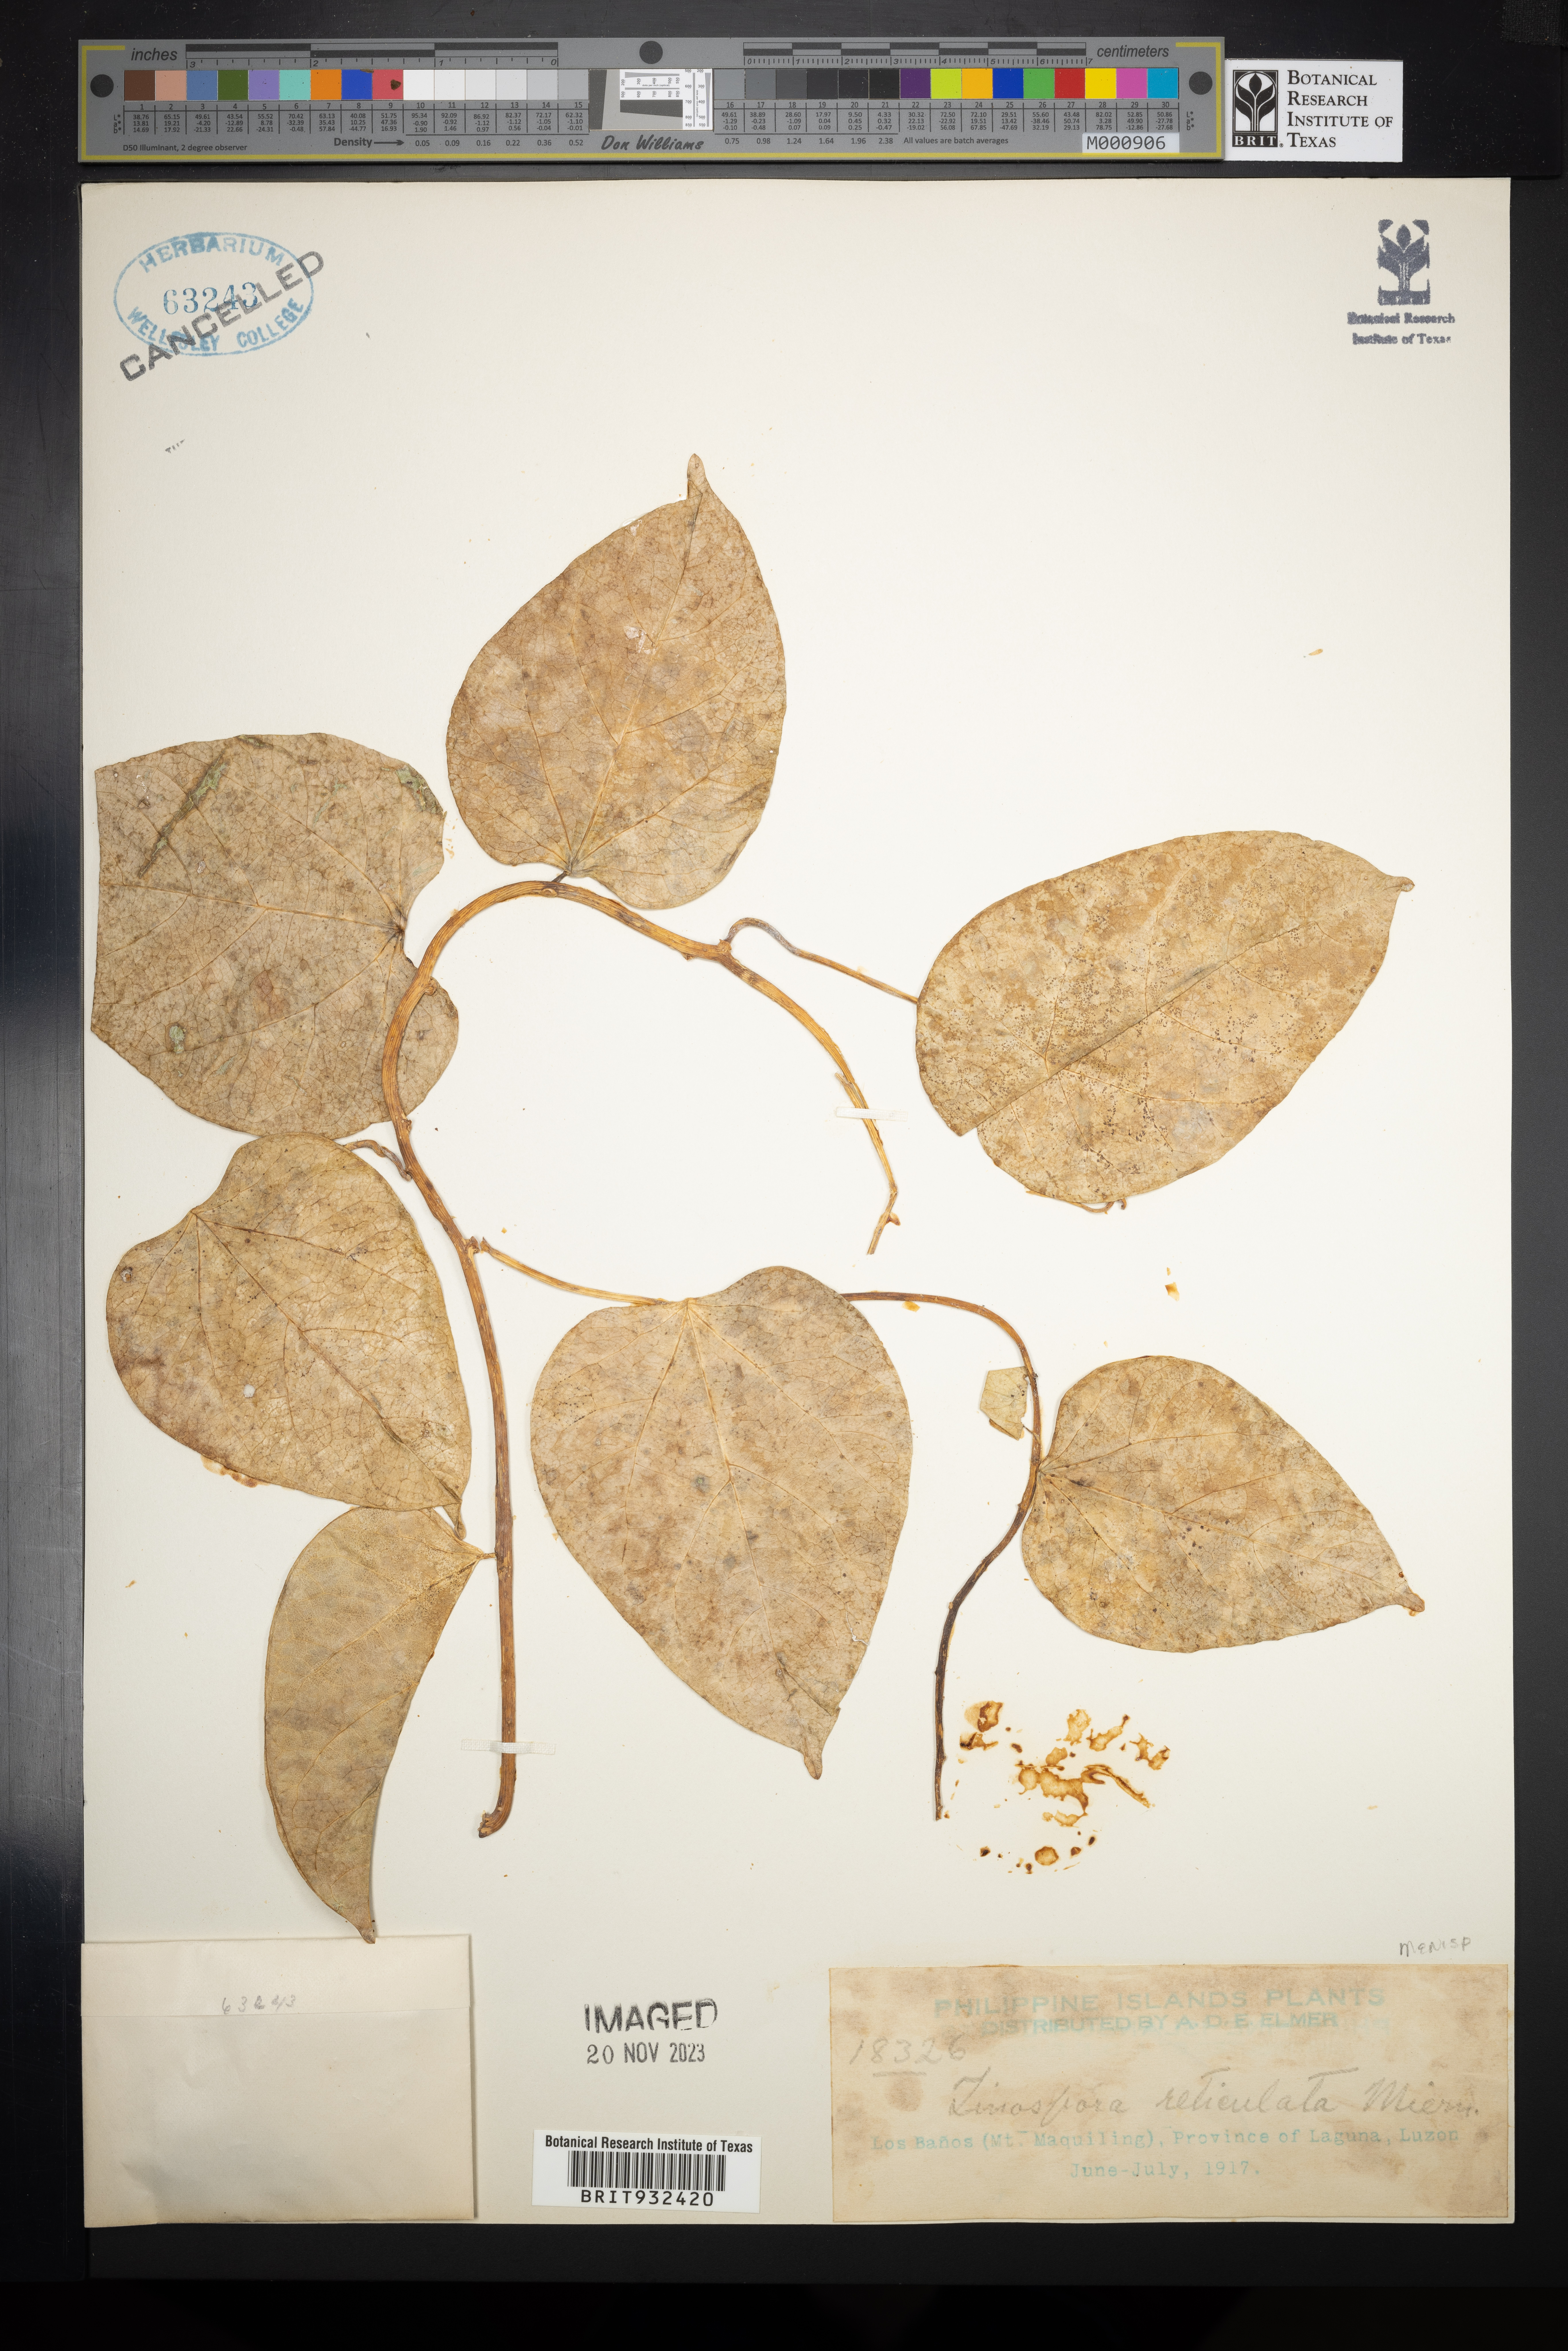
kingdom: Plantae
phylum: Tracheophyta
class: Magnoliopsida
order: Ranunculales
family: Menispermaceae
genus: Tinospora
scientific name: Tinospora
